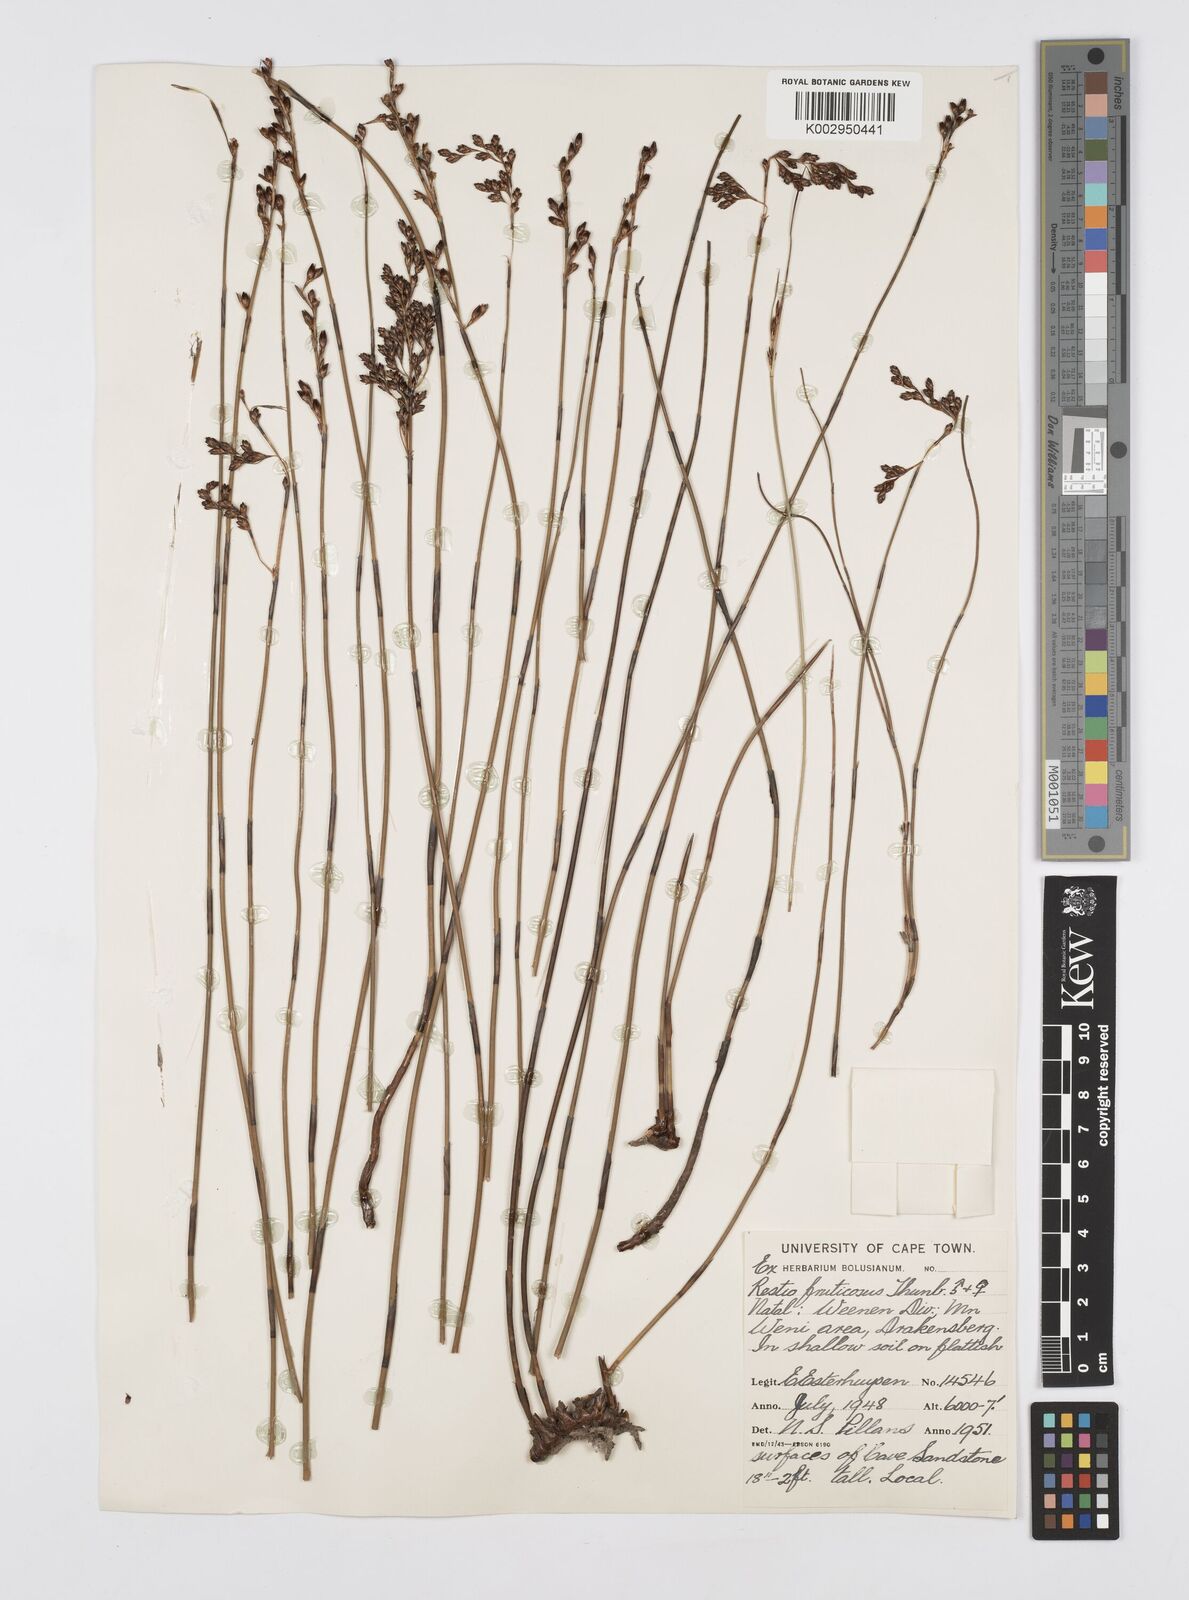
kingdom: Plantae
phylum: Tracheophyta
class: Liliopsida
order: Poales
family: Restionaceae
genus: Rhodocoma
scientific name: Rhodocoma fruticosa
